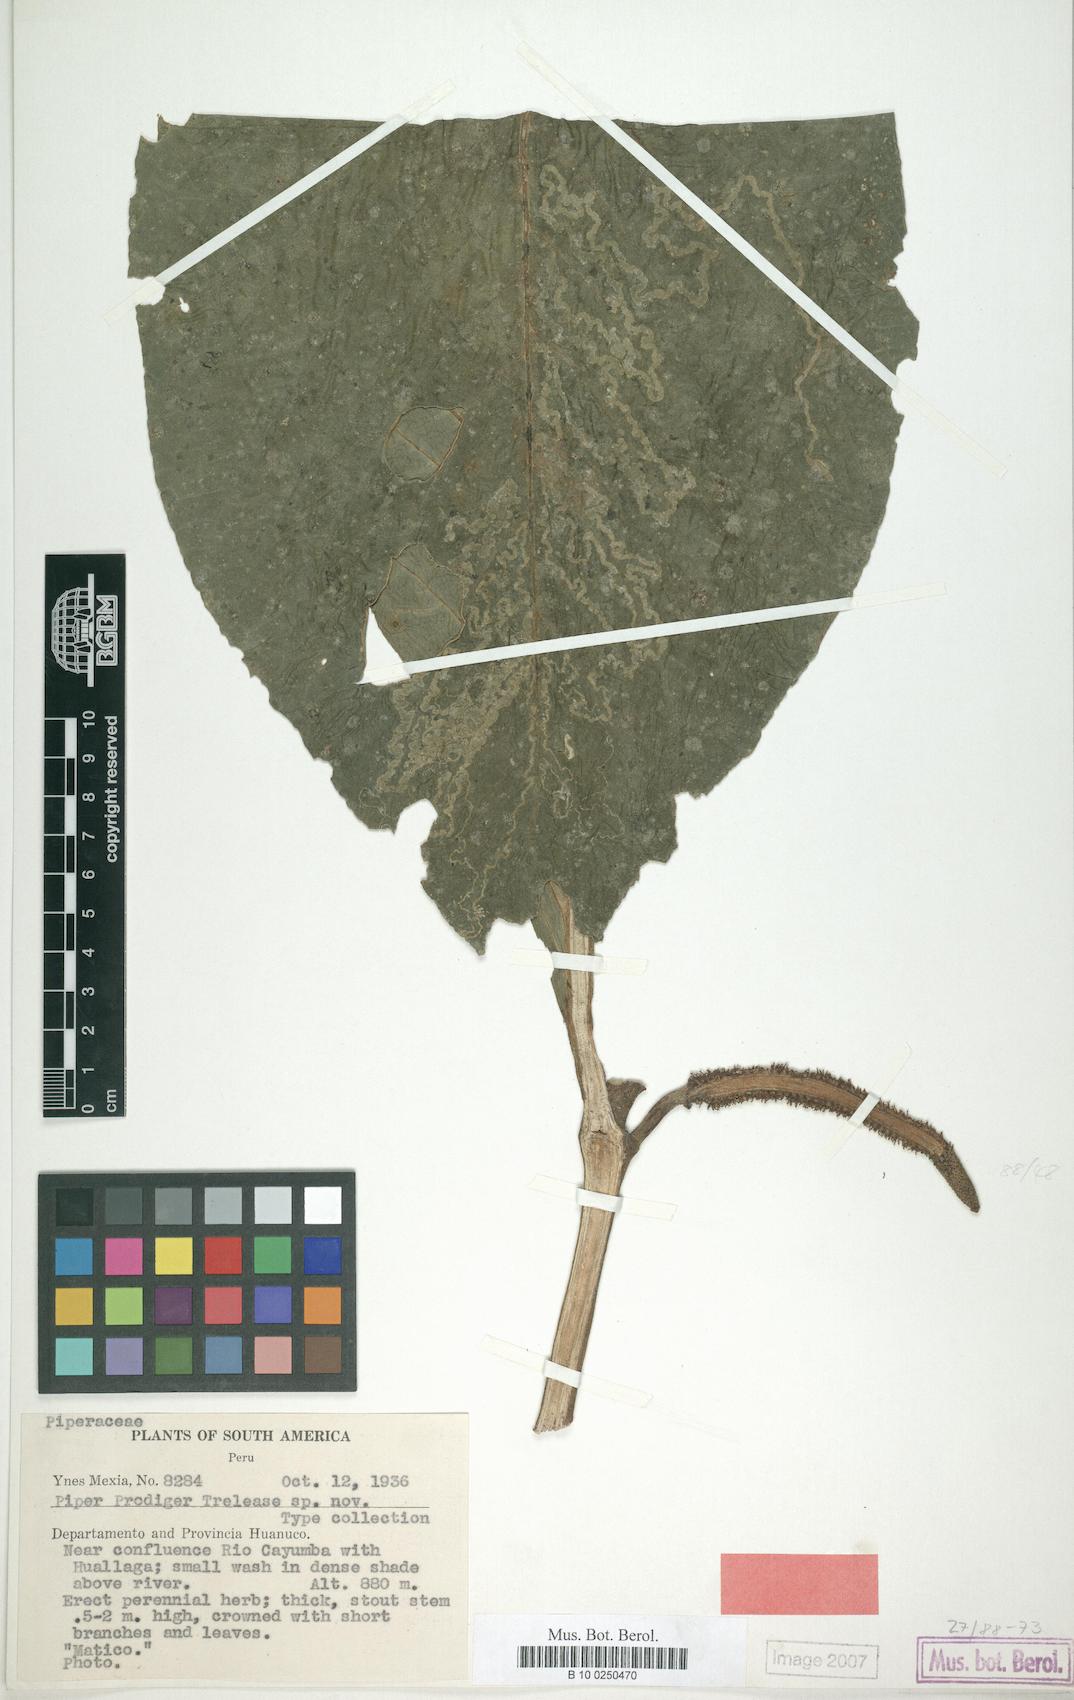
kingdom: Plantae
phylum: Tracheophyta
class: Magnoliopsida
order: Piperales
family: Piperaceae
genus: Piper
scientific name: Piper prodigum
